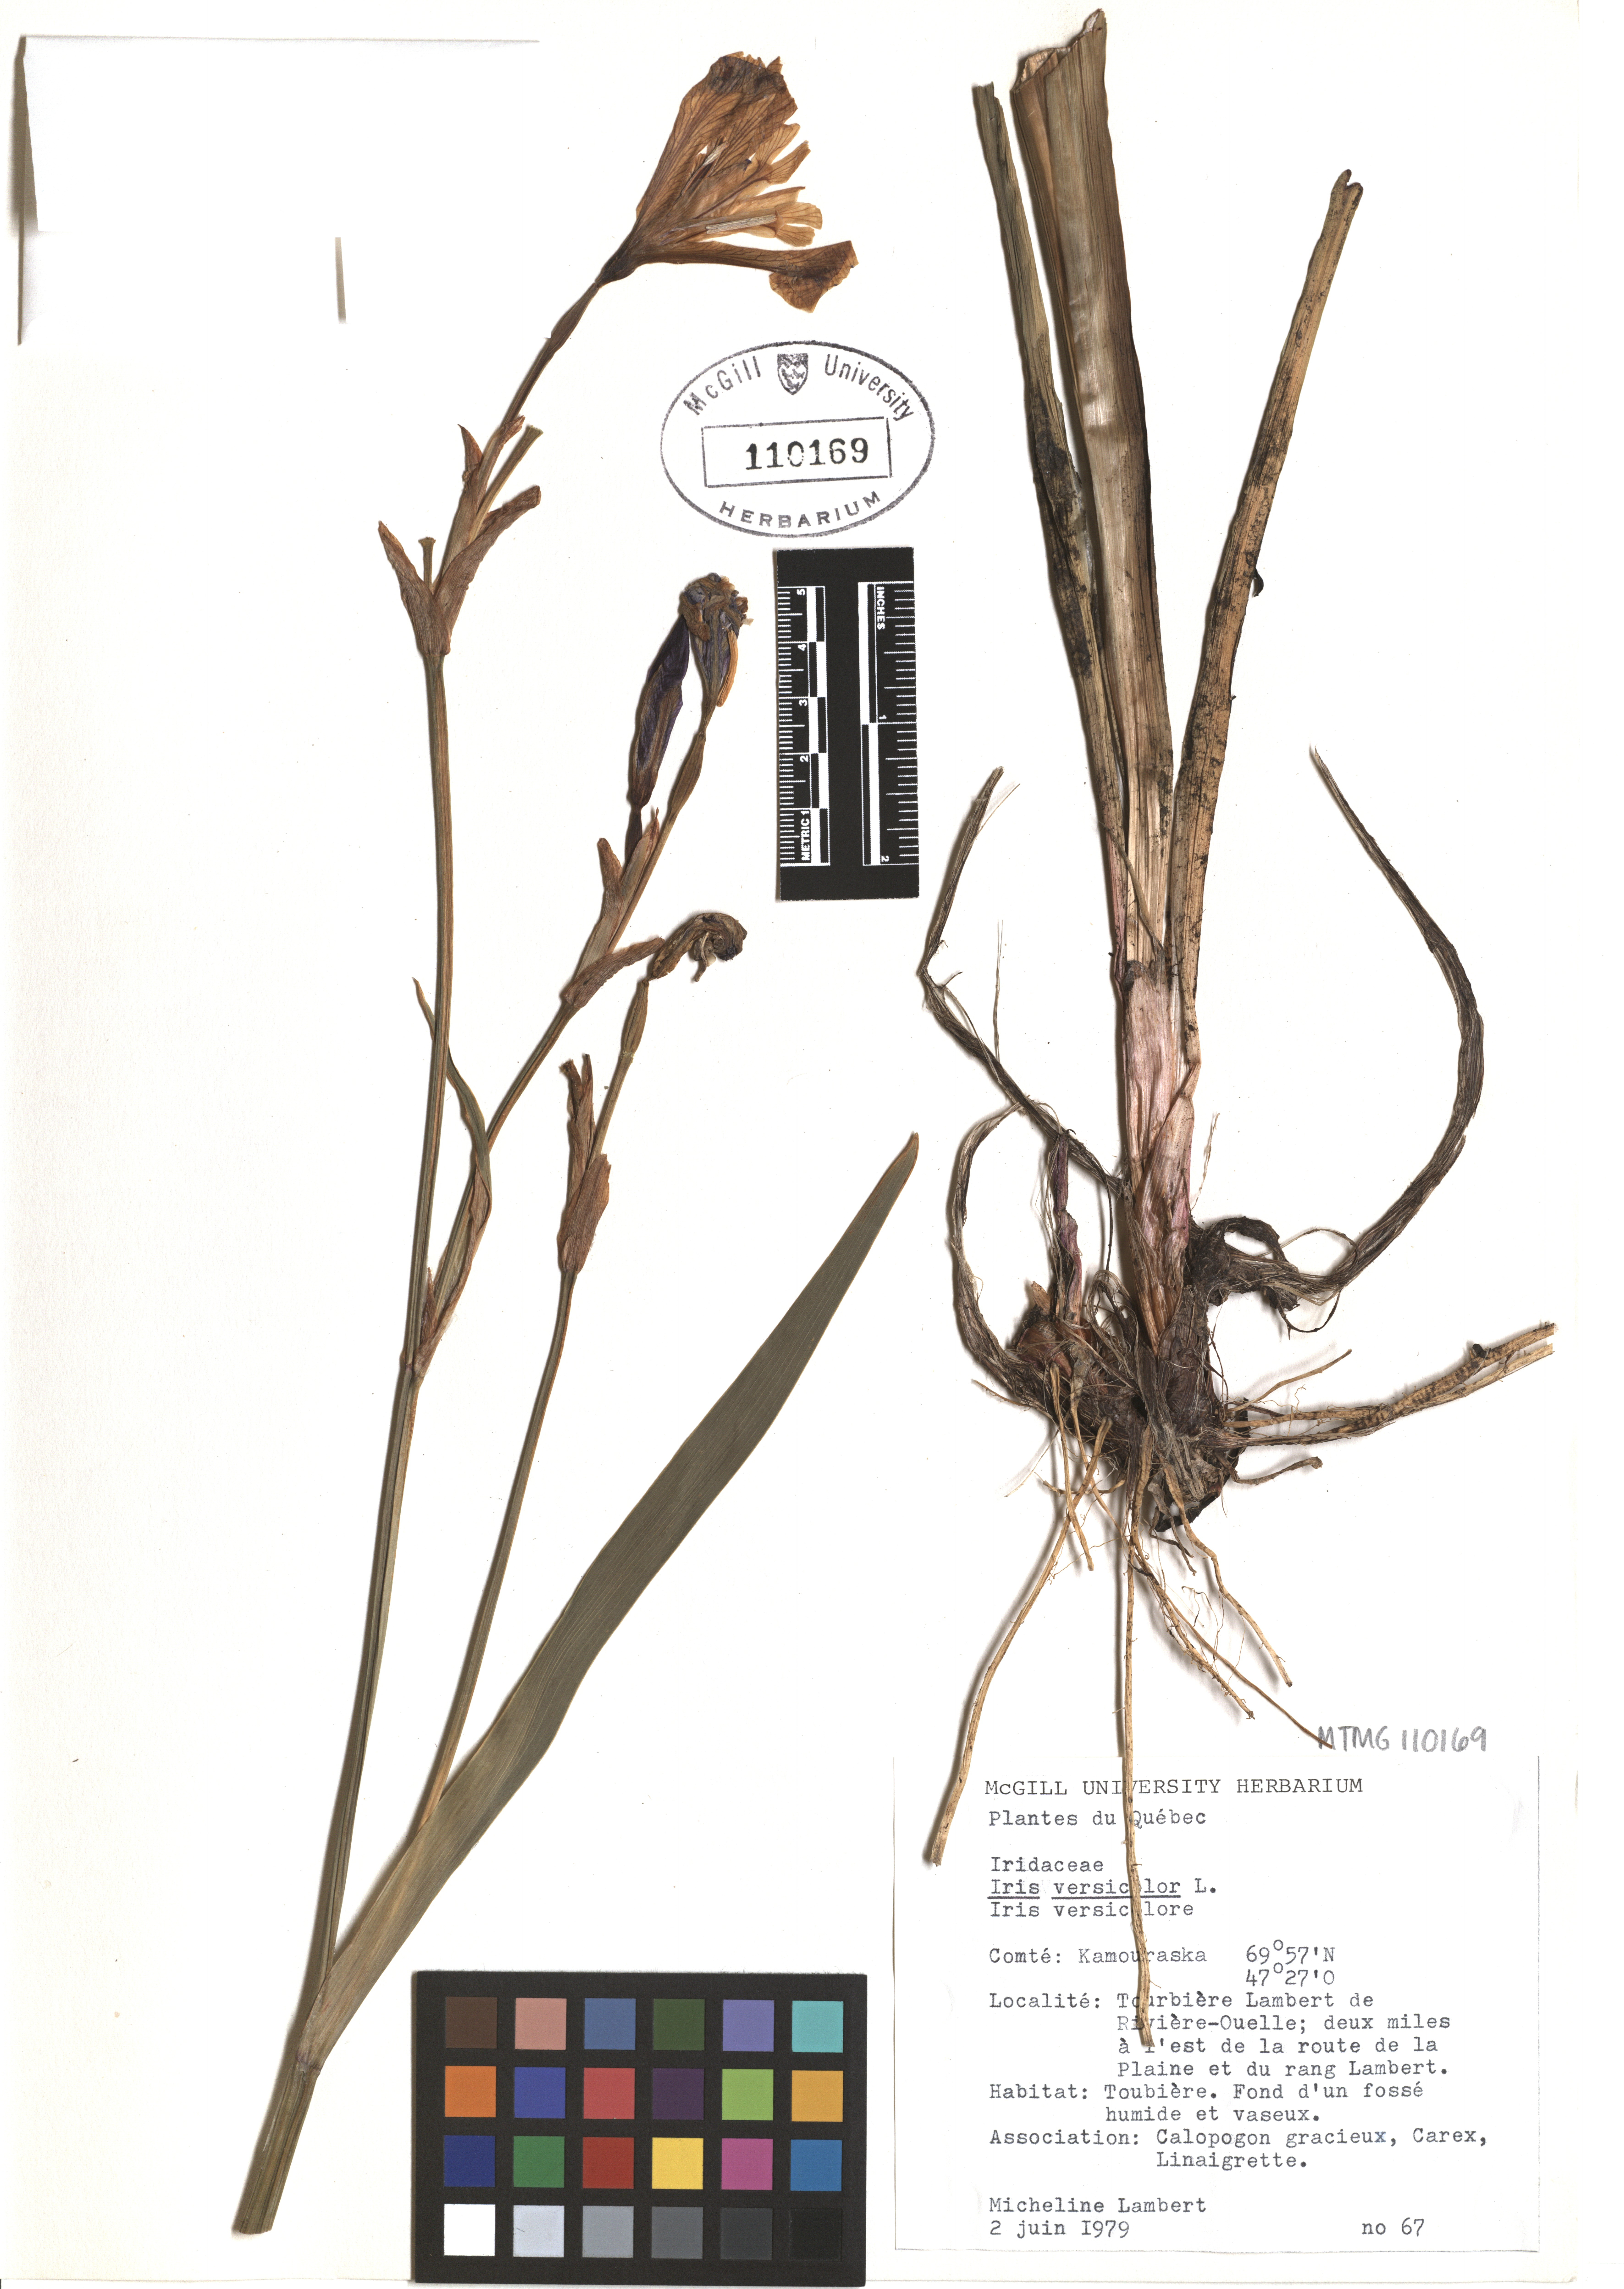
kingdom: Plantae
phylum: Tracheophyta
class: Liliopsida
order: Asparagales
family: Iridaceae
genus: Iris
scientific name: Iris versicolor
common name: Purple iris
